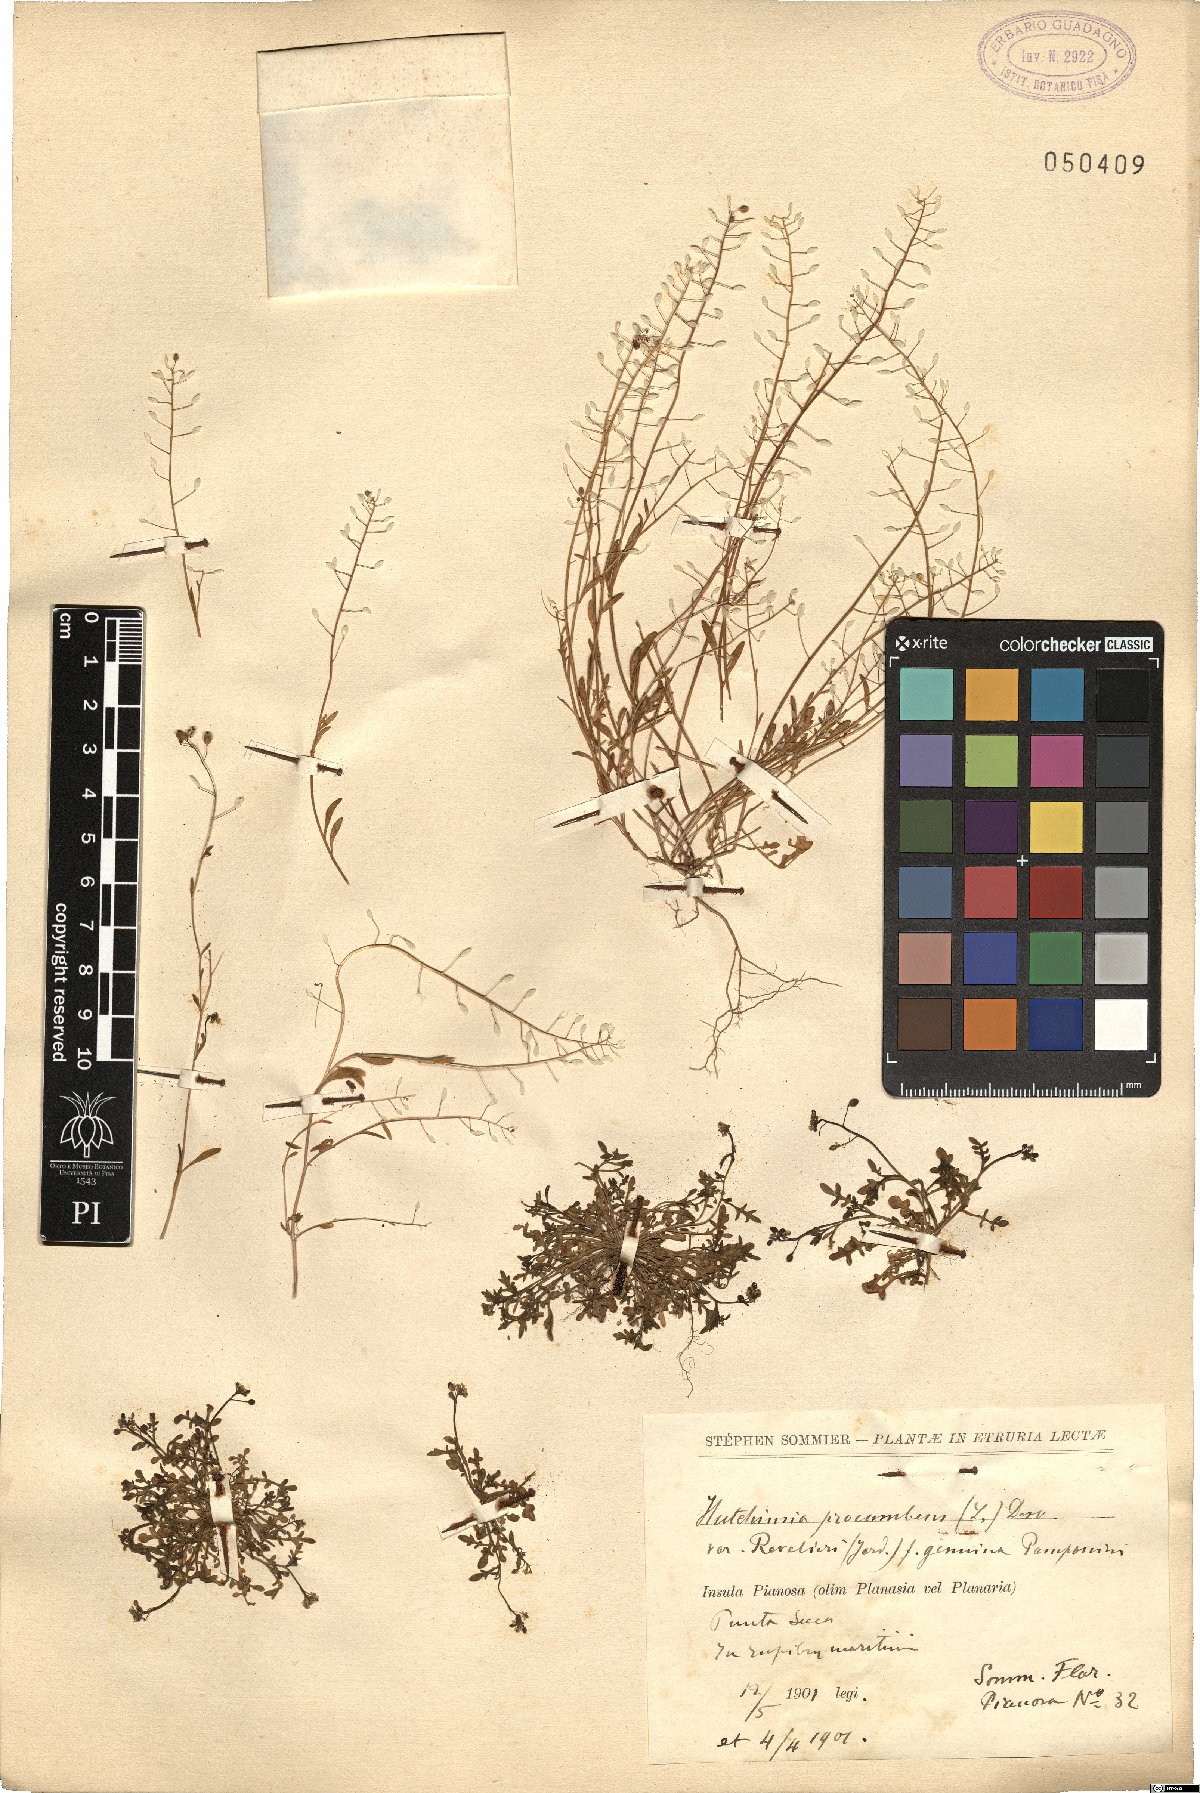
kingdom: Plantae
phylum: Tracheophyta
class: Magnoliopsida
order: Brassicales
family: Brassicaceae
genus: Hornungia
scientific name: Hornungia procumbens
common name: Oval purse
